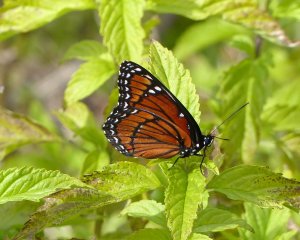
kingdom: Animalia
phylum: Arthropoda
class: Insecta
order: Lepidoptera
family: Nymphalidae
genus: Limenitis
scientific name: Limenitis archippus
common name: Viceroy
